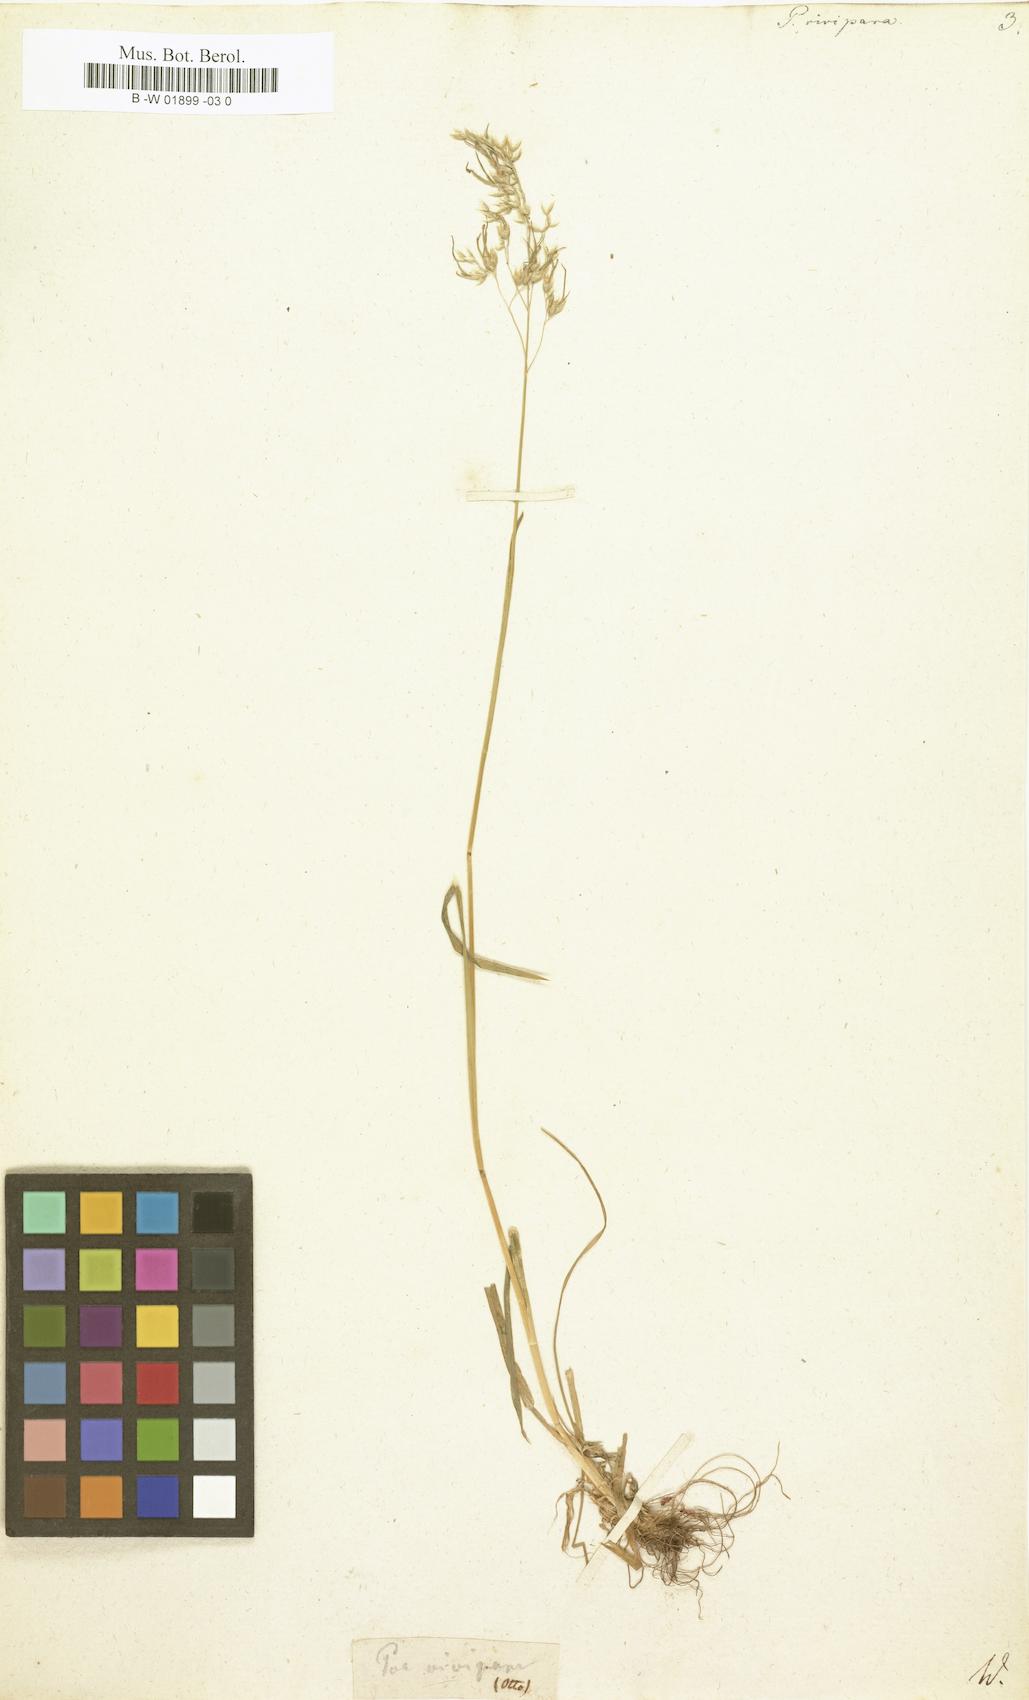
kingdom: Plantae
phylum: Tracheophyta
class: Liliopsida
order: Poales
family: Poaceae
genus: Poa
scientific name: Poa alpina
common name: Alpine bluegrass
